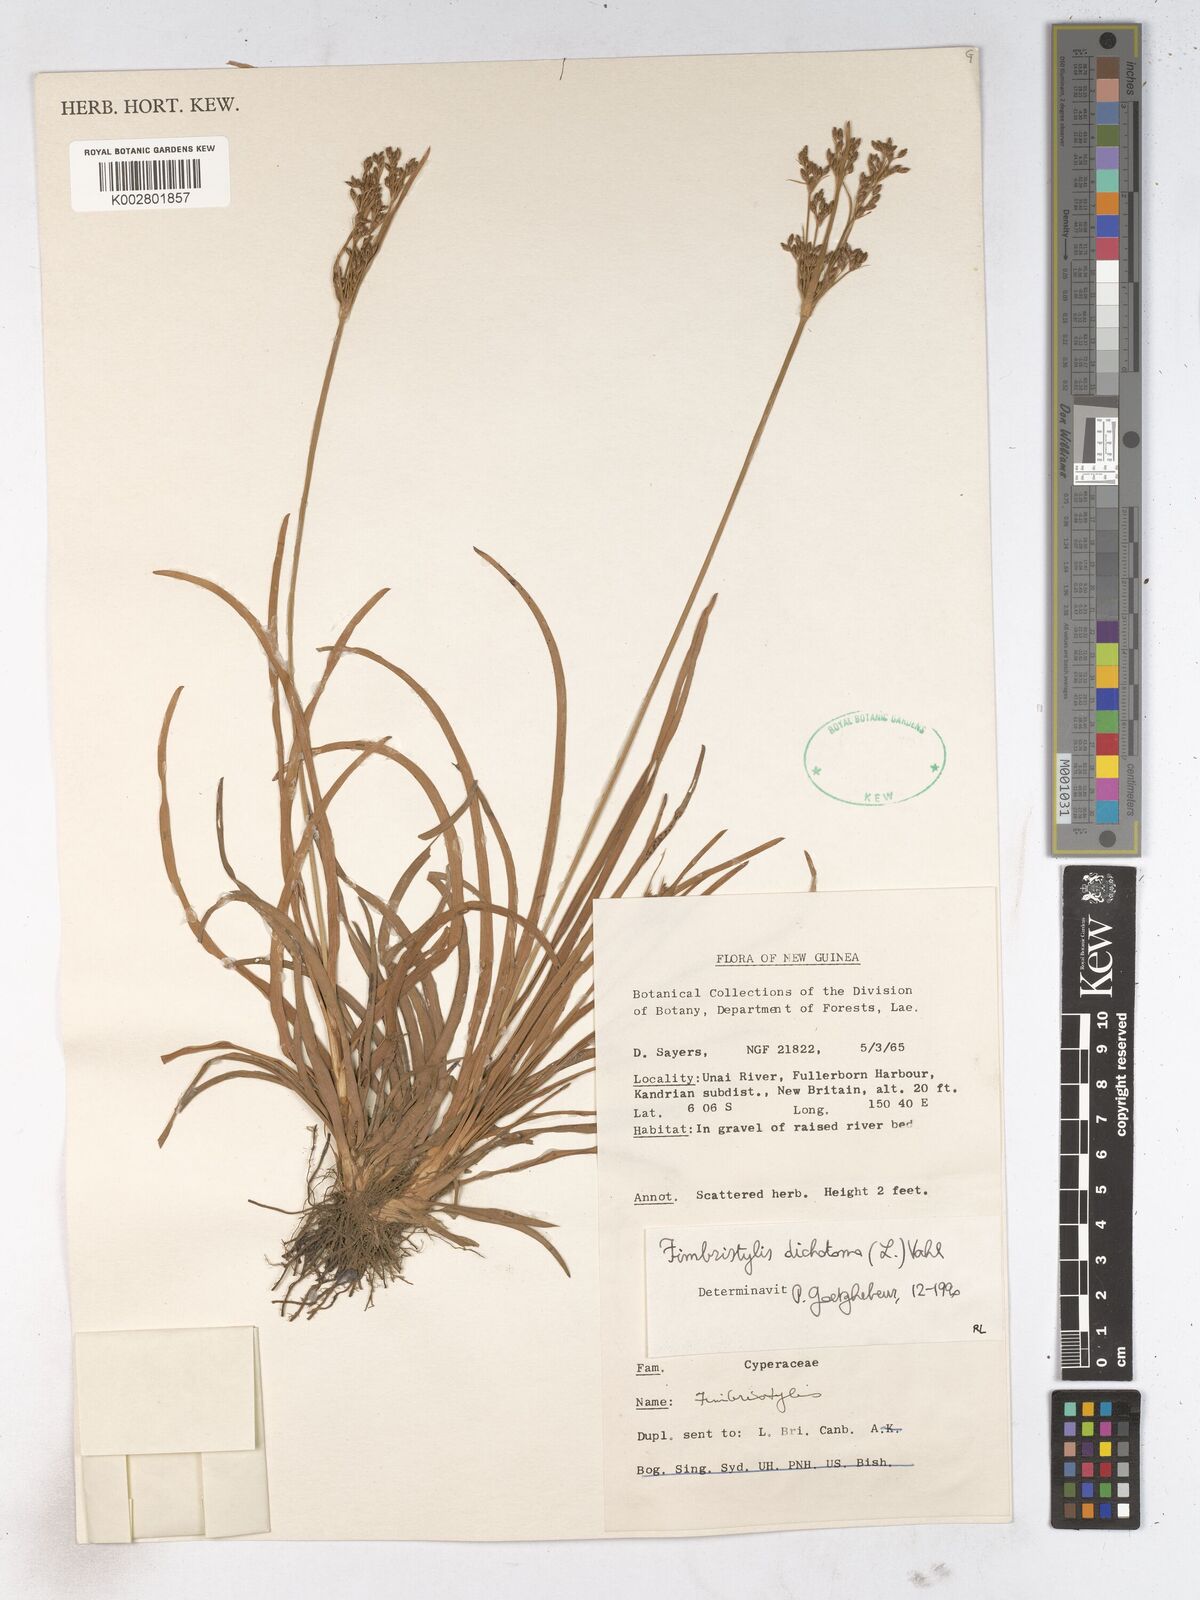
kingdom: Plantae
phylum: Tracheophyta
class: Liliopsida
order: Poales
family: Cyperaceae
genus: Fimbristylis
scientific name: Fimbristylis dichotoma
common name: Forked fimbry
